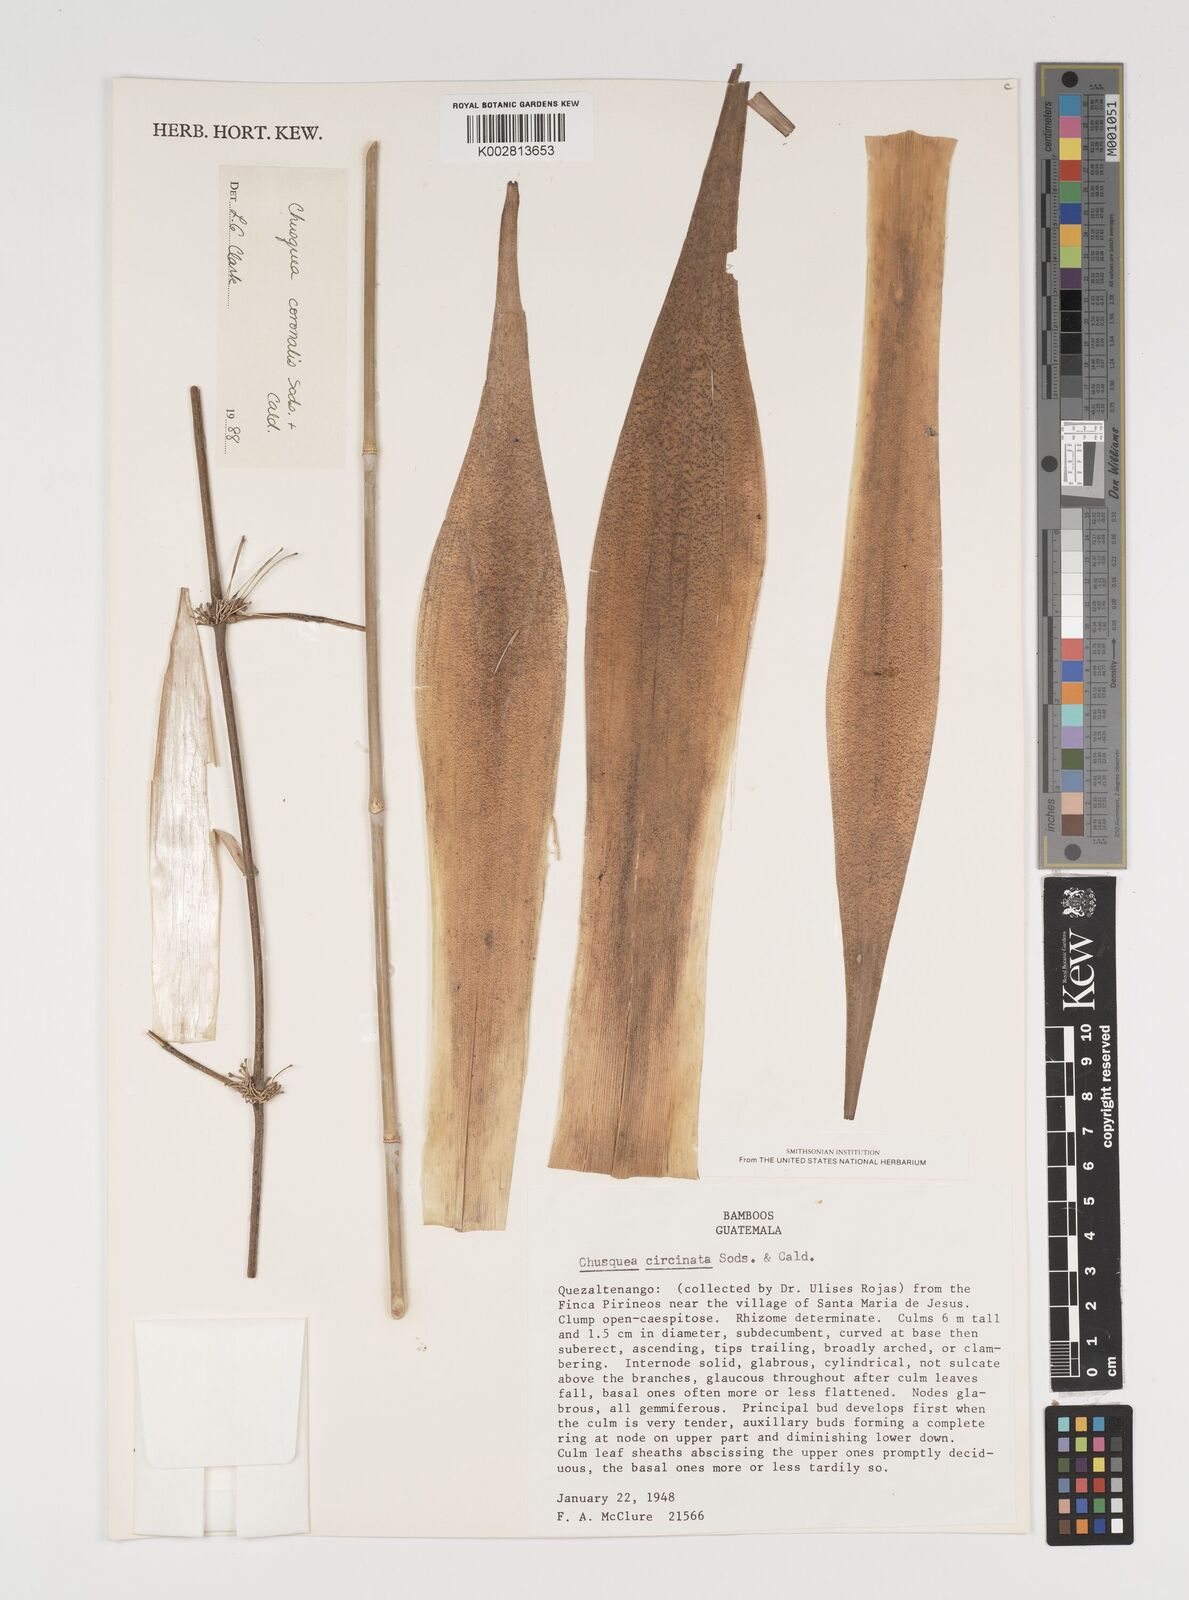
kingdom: Plantae
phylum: Tracheophyta
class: Liliopsida
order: Poales
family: Poaceae
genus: Chusquea
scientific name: Chusquea coronalis
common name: Machris bamboo
